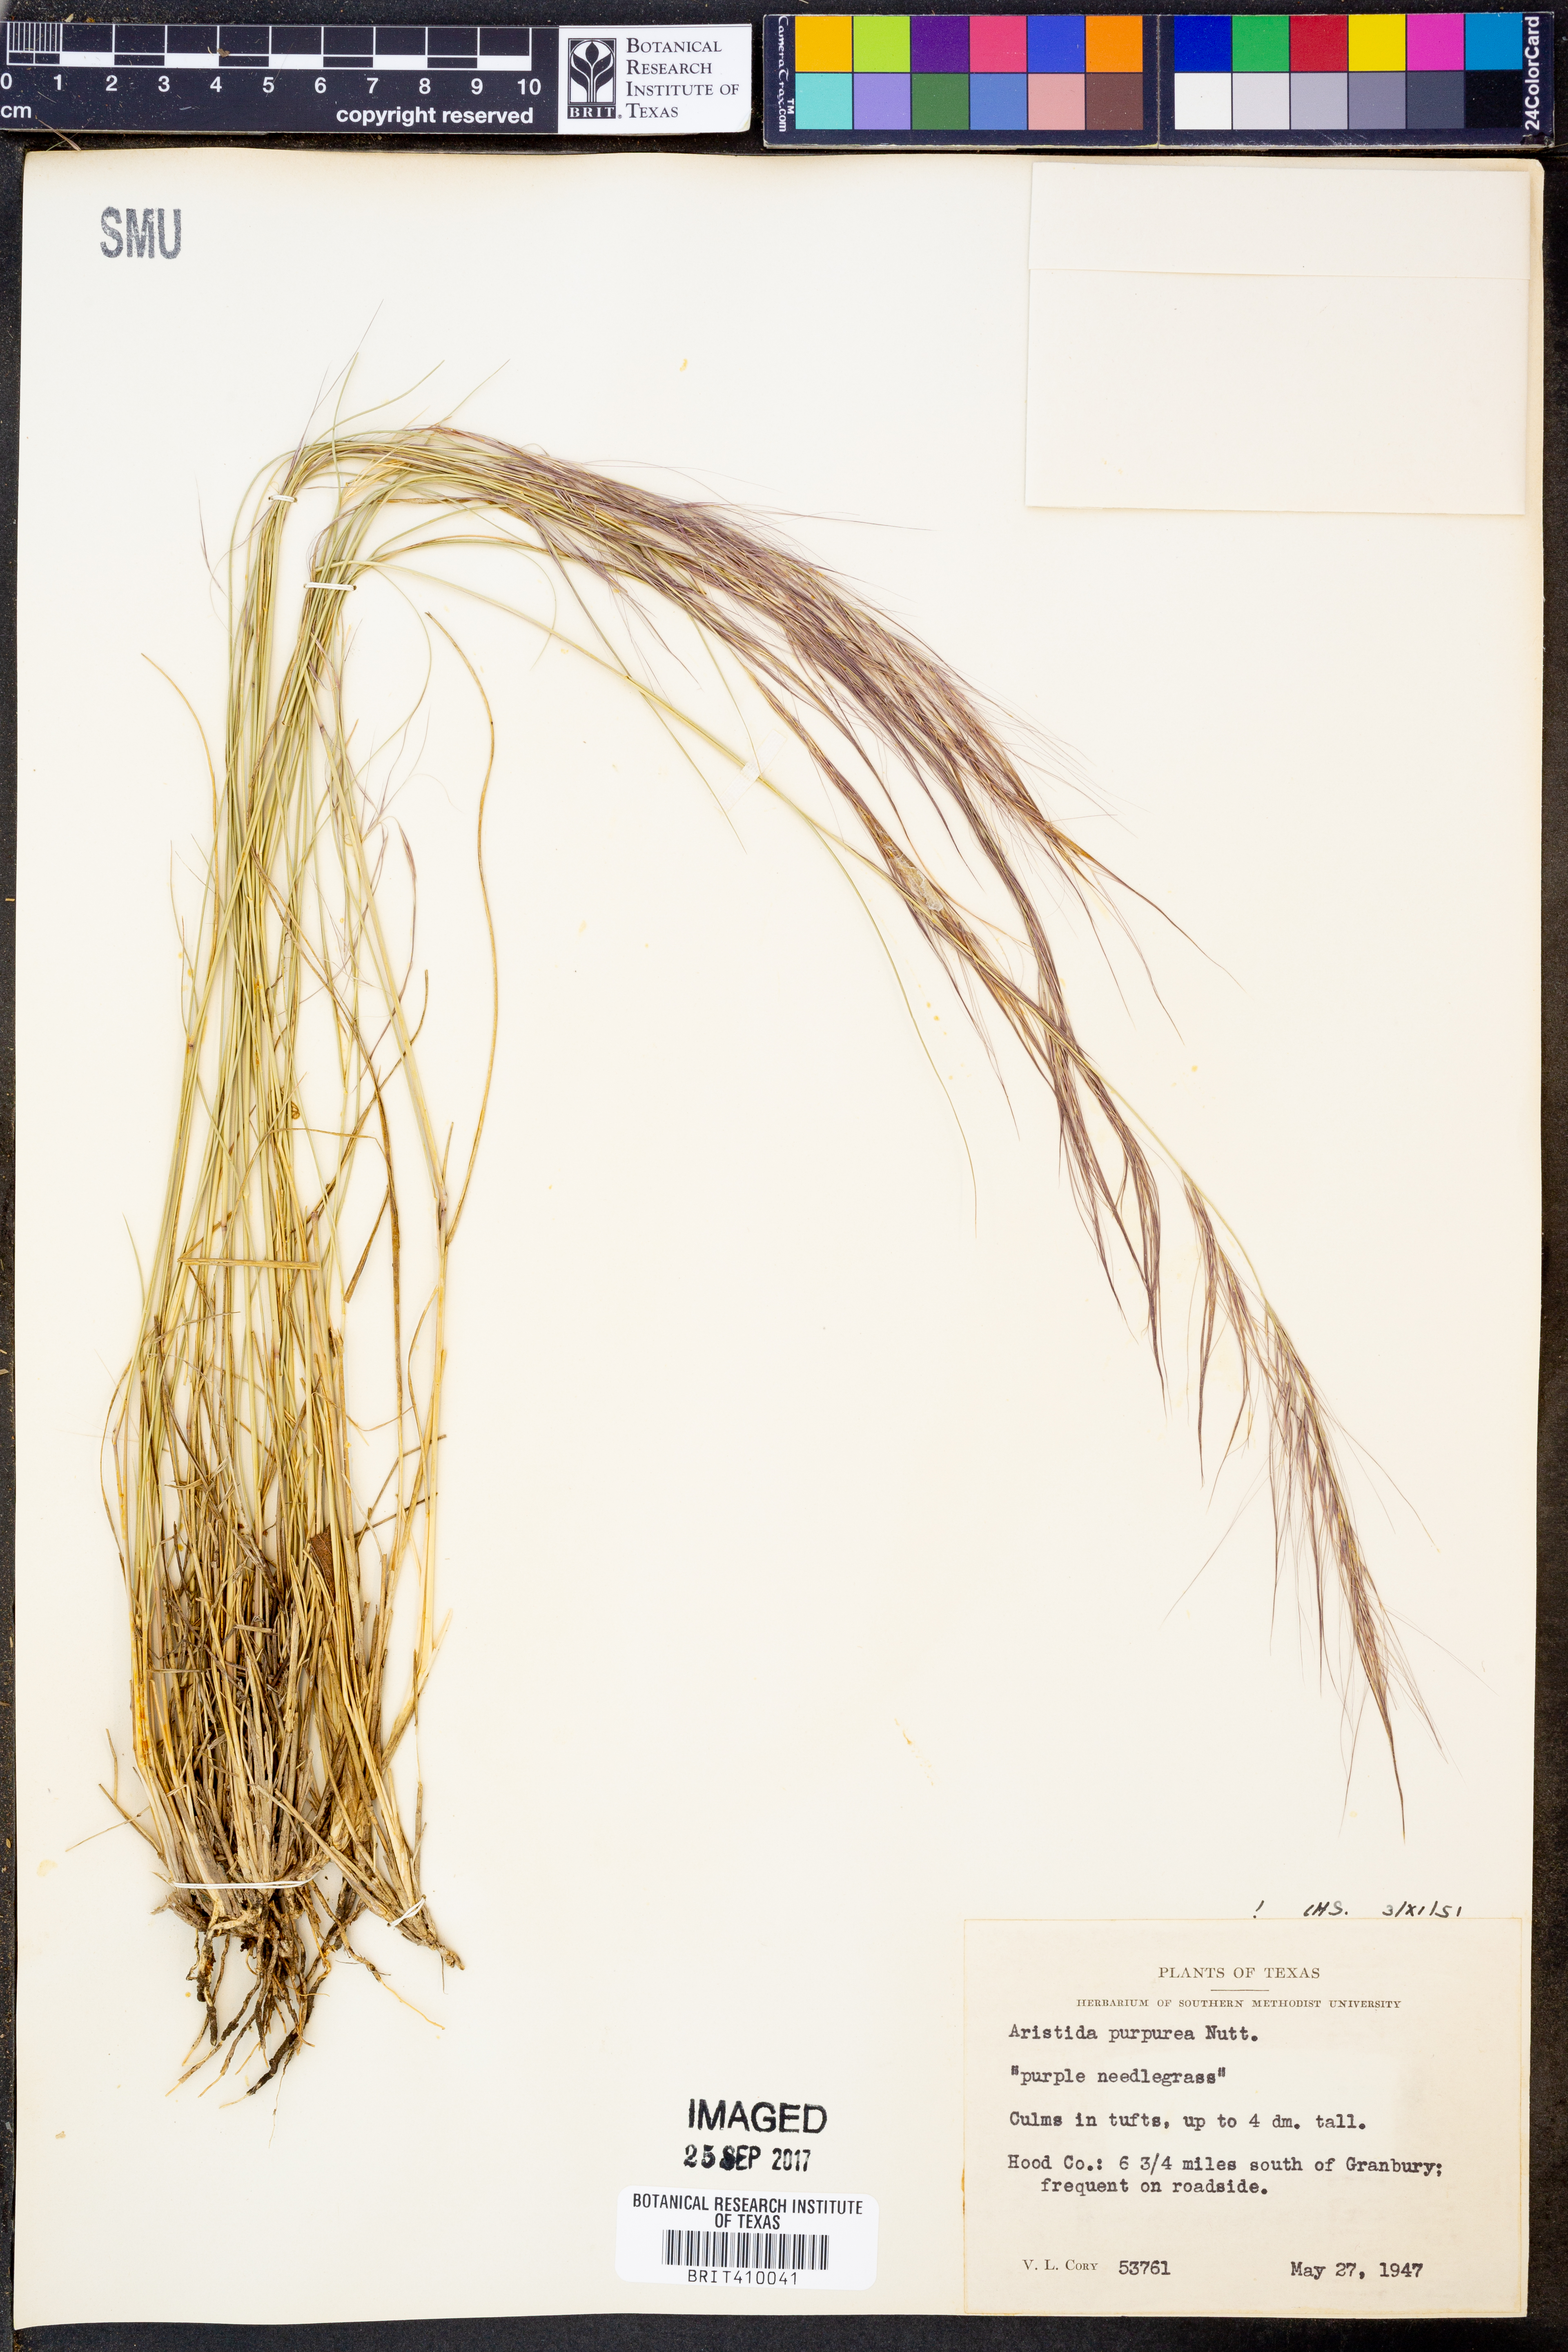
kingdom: Plantae
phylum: Tracheophyta
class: Liliopsida
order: Poales
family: Poaceae
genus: Aristida
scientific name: Aristida purpurea
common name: Purple threeawn
